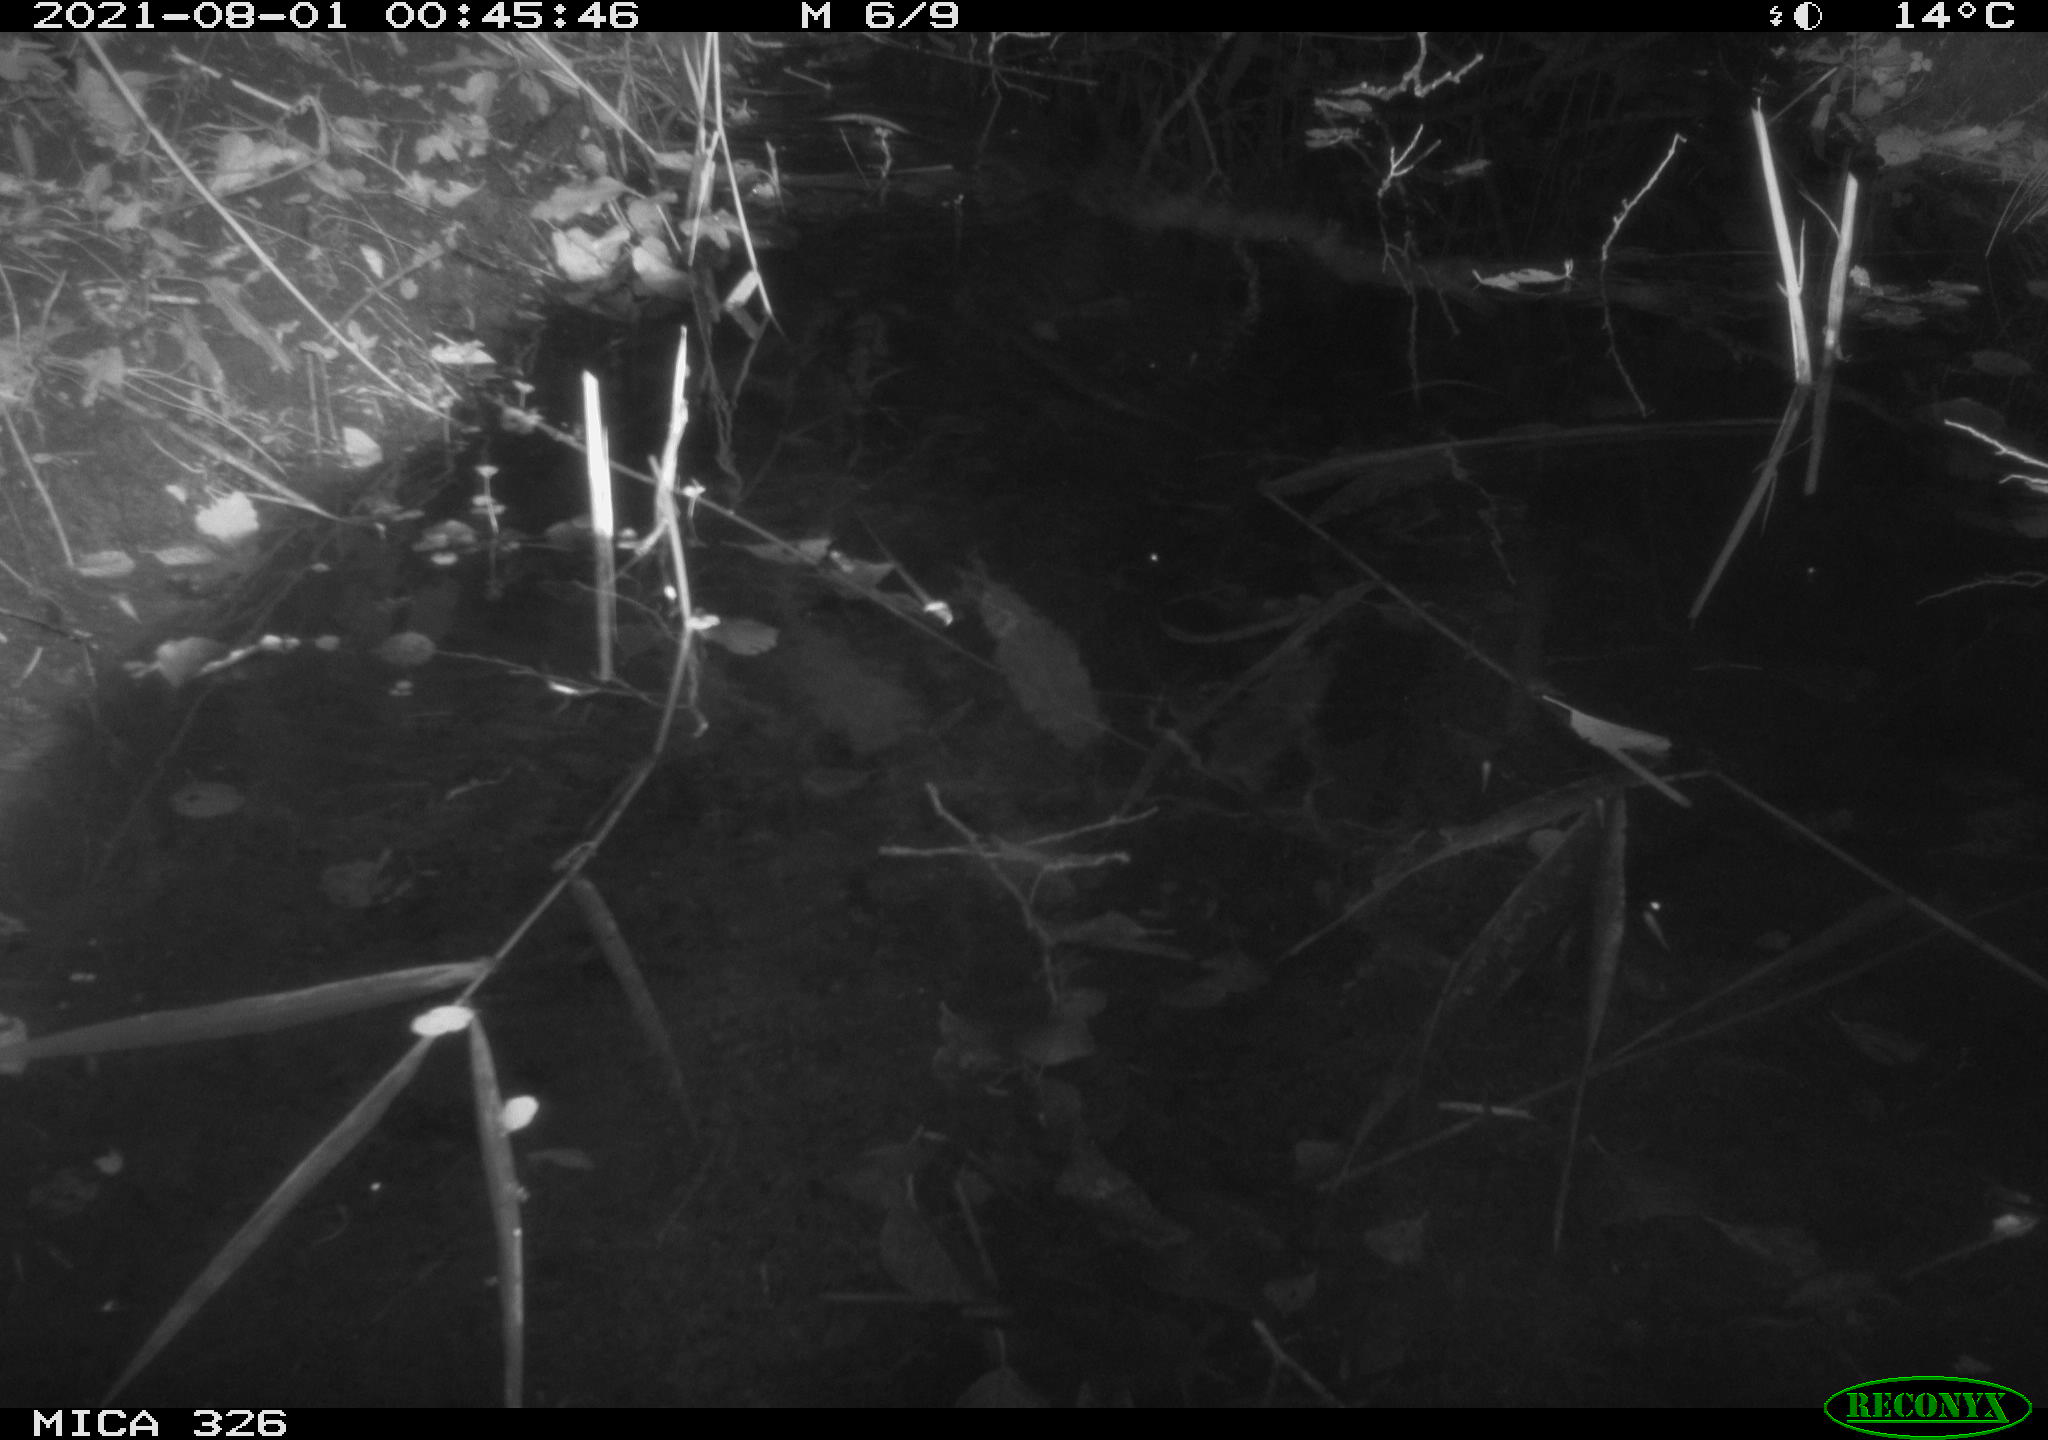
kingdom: Animalia
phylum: Chordata
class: Mammalia
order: Rodentia
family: Muridae
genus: Rattus
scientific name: Rattus norvegicus
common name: Brown rat
